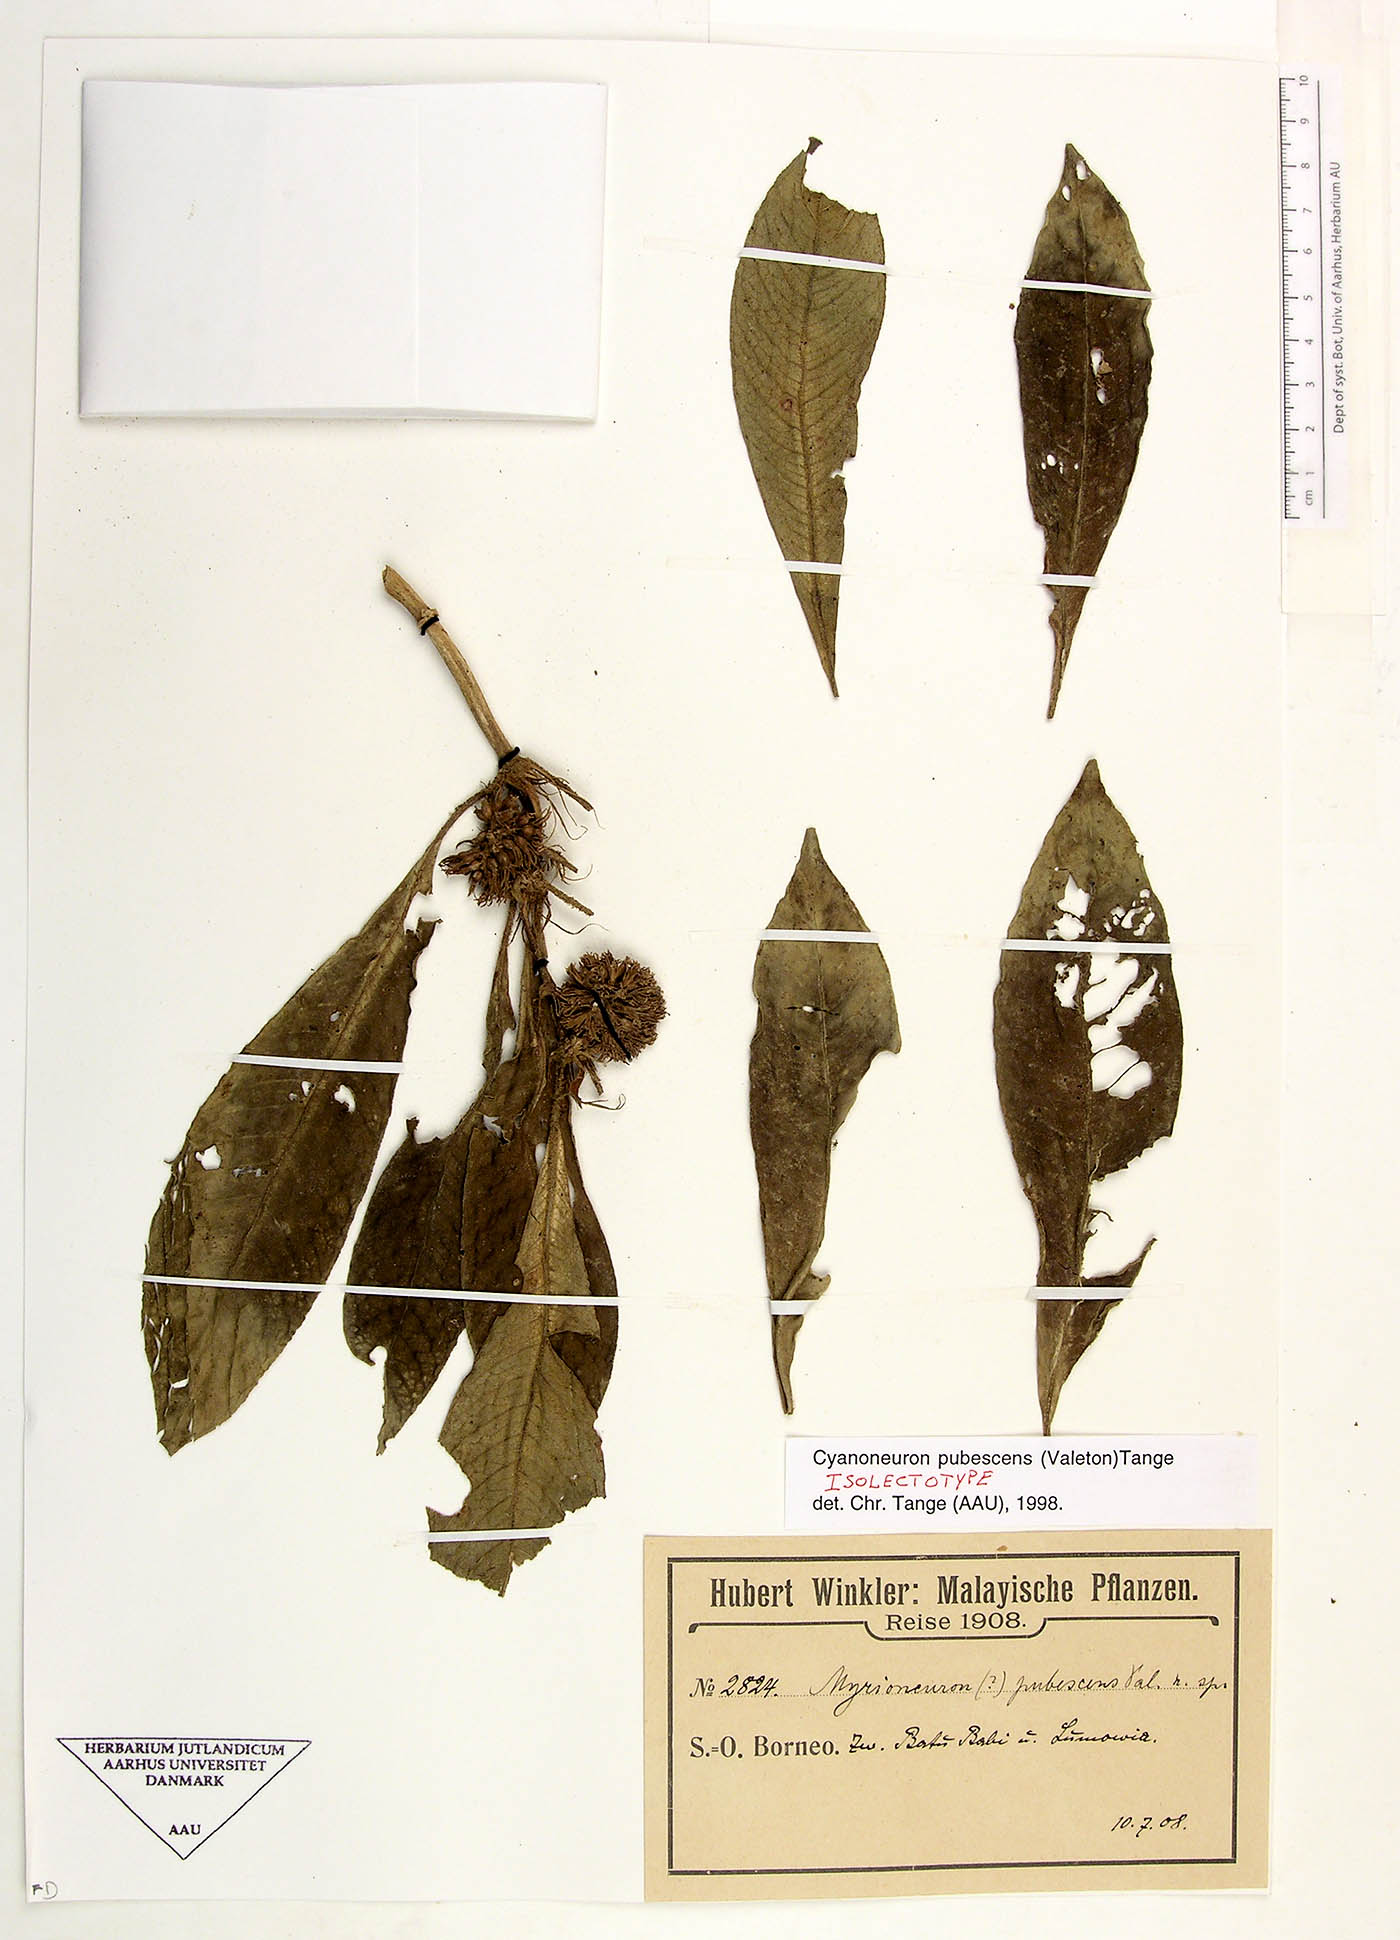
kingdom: Plantae
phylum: Tracheophyta
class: Magnoliopsida
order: Gentianales
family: Rubiaceae
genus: Cyanoneuron
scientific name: Cyanoneuron pubescens
